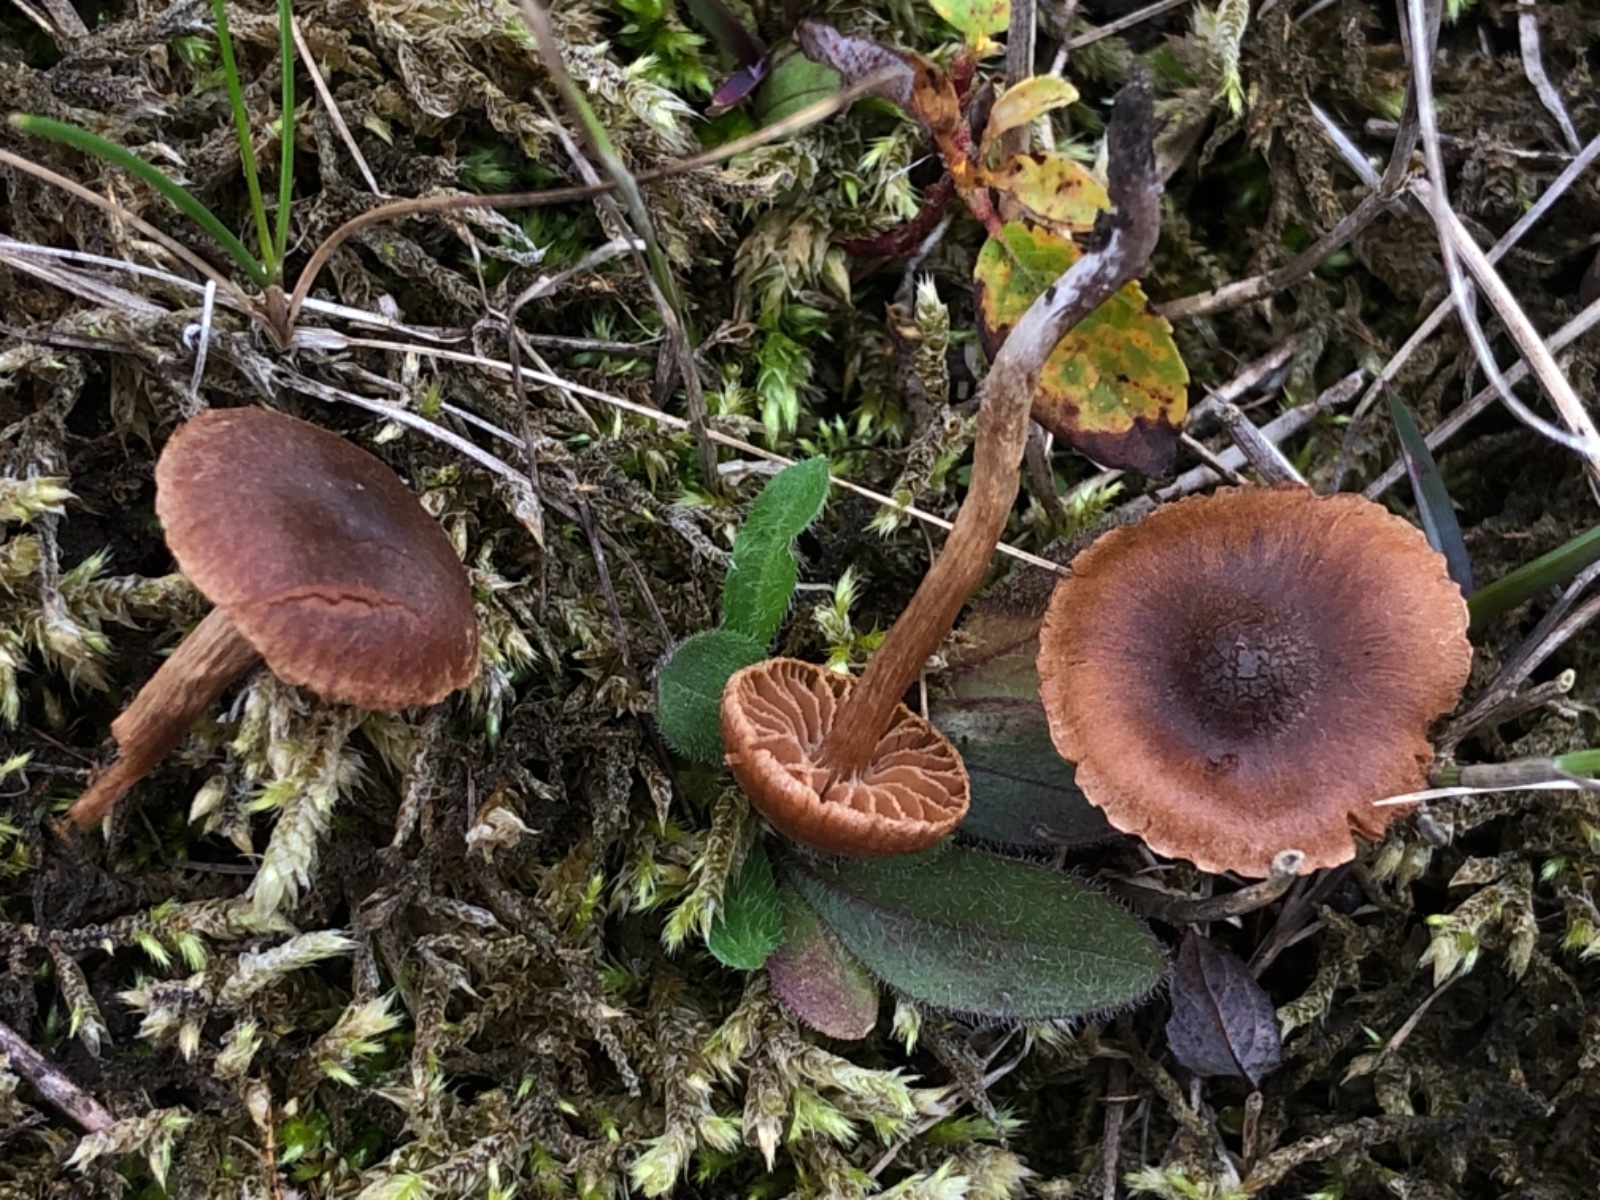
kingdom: Fungi
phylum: Basidiomycota
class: Agaricomycetes
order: Agaricales
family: Cortinariaceae
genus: Cortinarius
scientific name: Cortinarius ammophiloides
